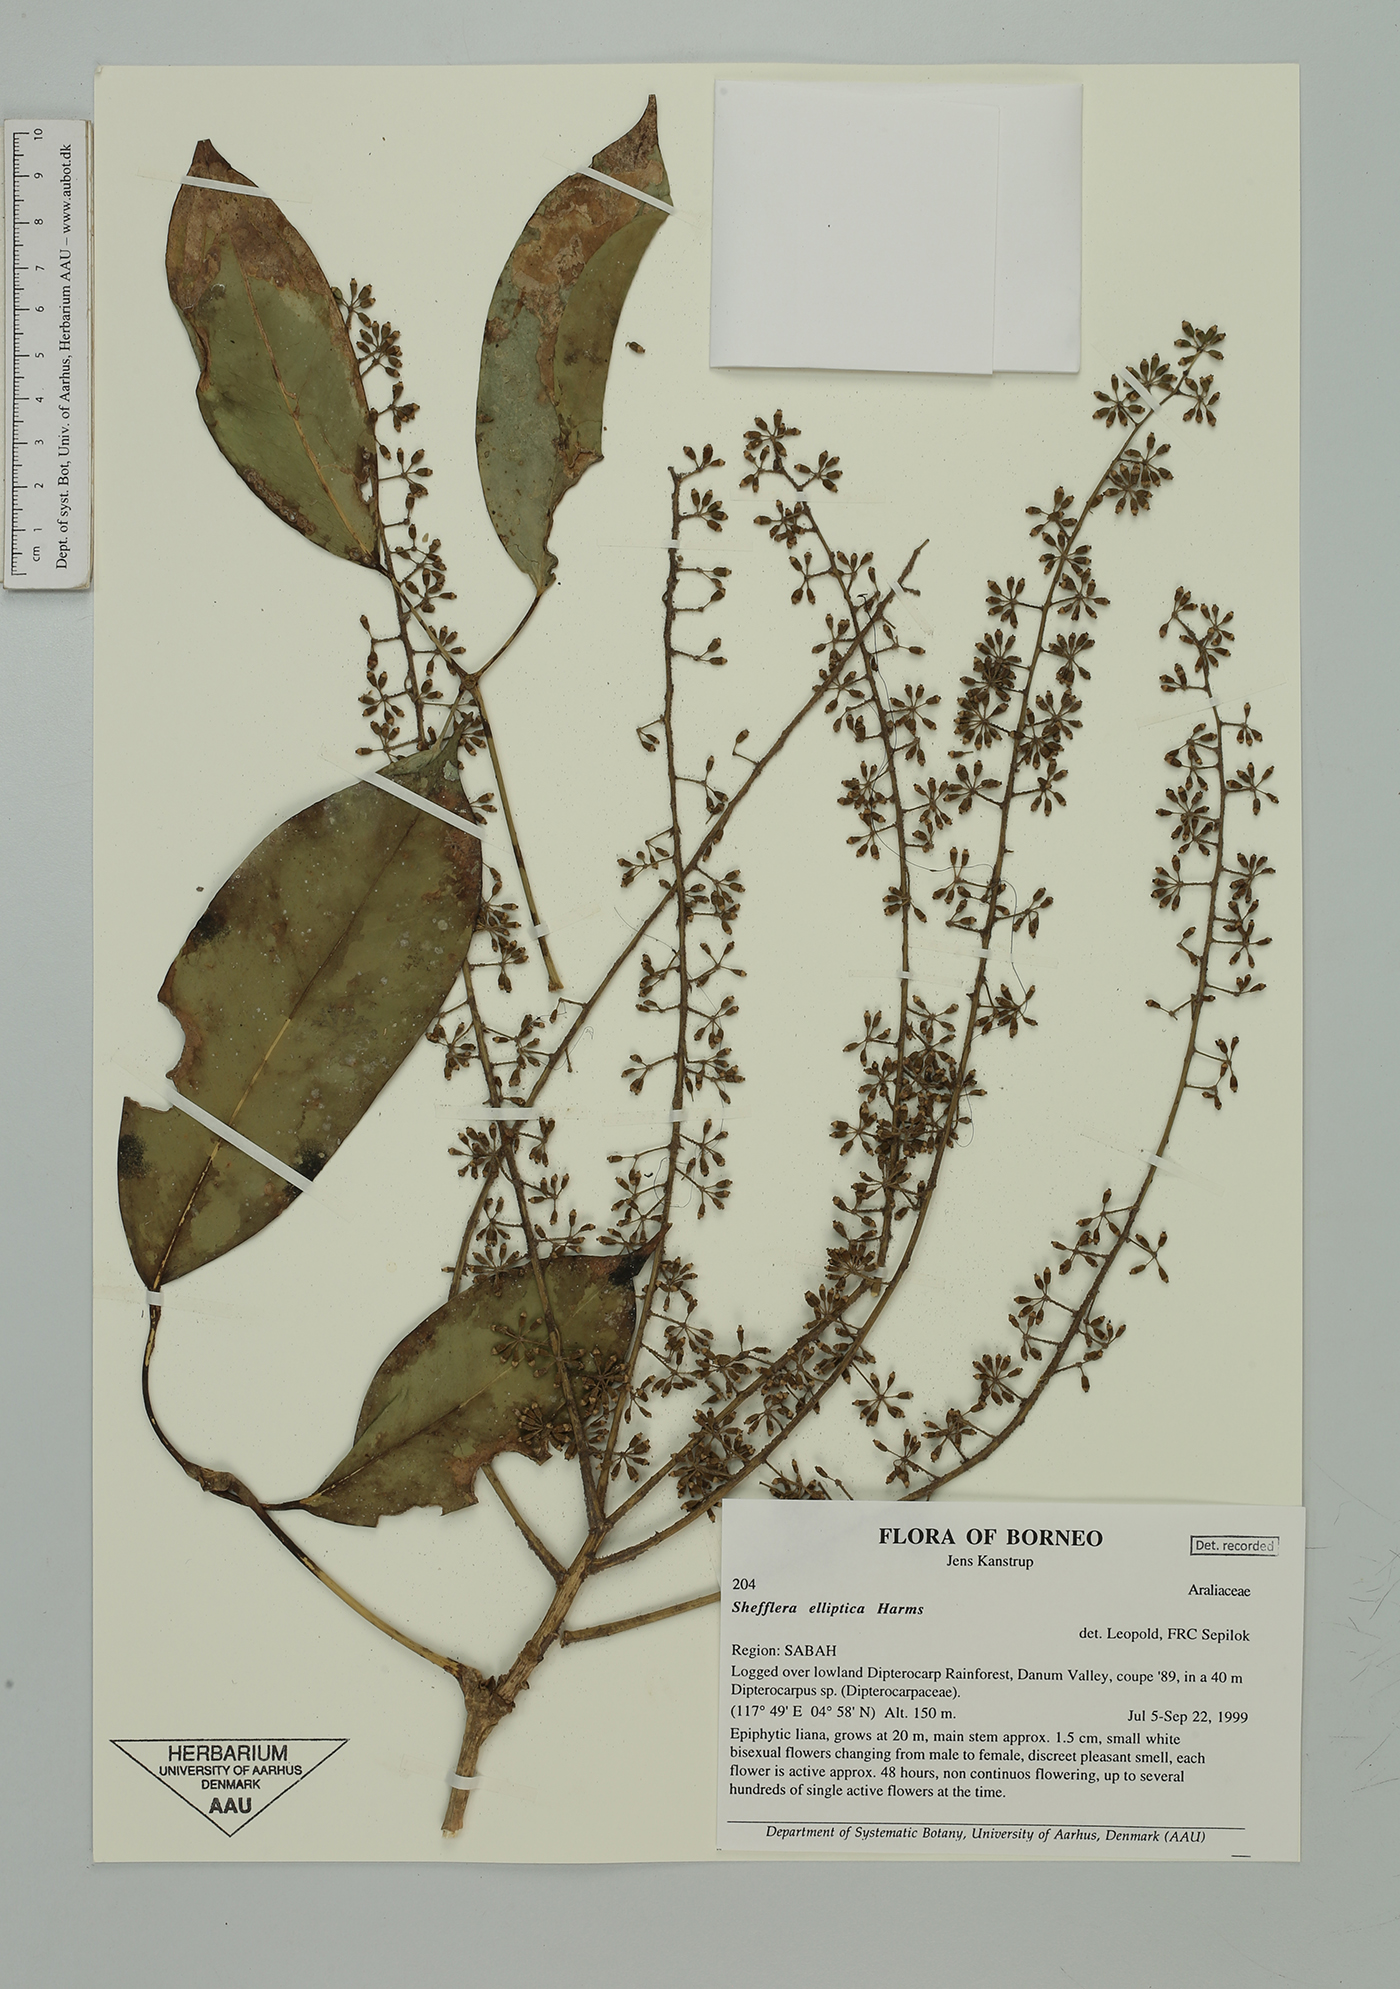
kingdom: Plantae
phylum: Tracheophyta
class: Magnoliopsida
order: Apiales
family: Araliaceae
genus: Heptapleurum
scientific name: Heptapleurum ellipticum
